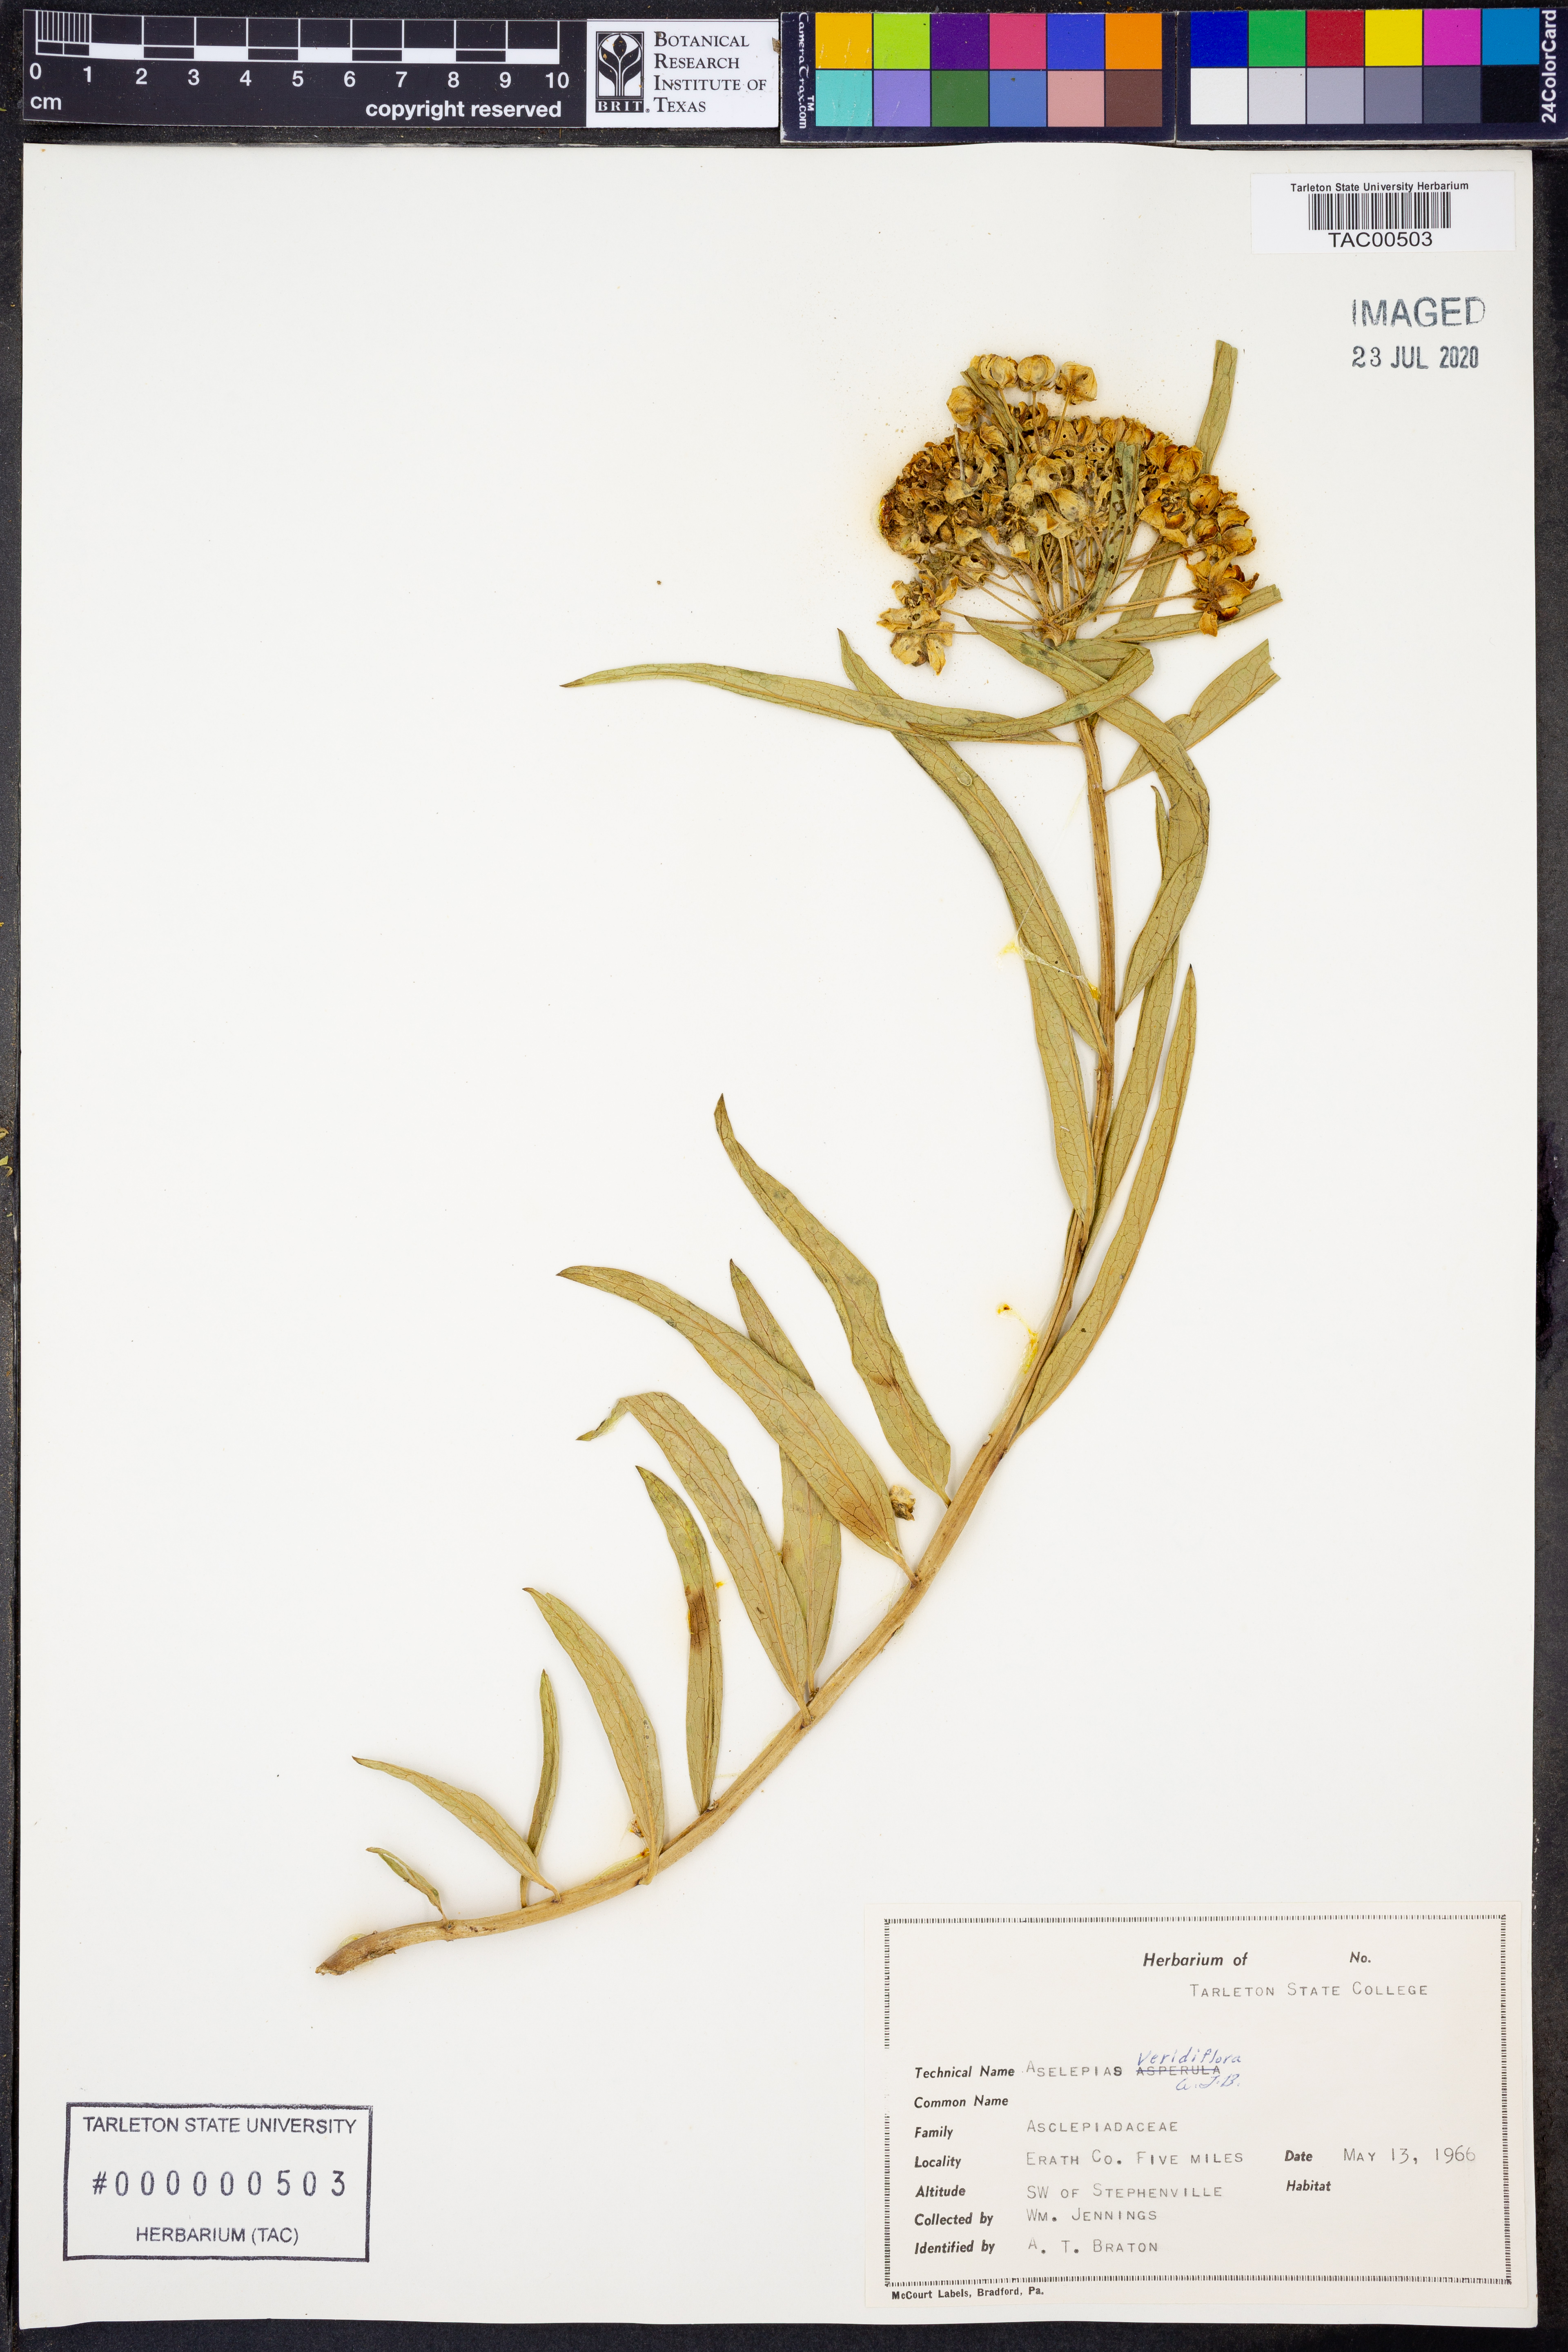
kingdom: Plantae
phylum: Tracheophyta
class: Magnoliopsida
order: Gentianales
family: Apocynaceae
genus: Asclepias
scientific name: Asclepias viridiflora
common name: Green comet milkweed
